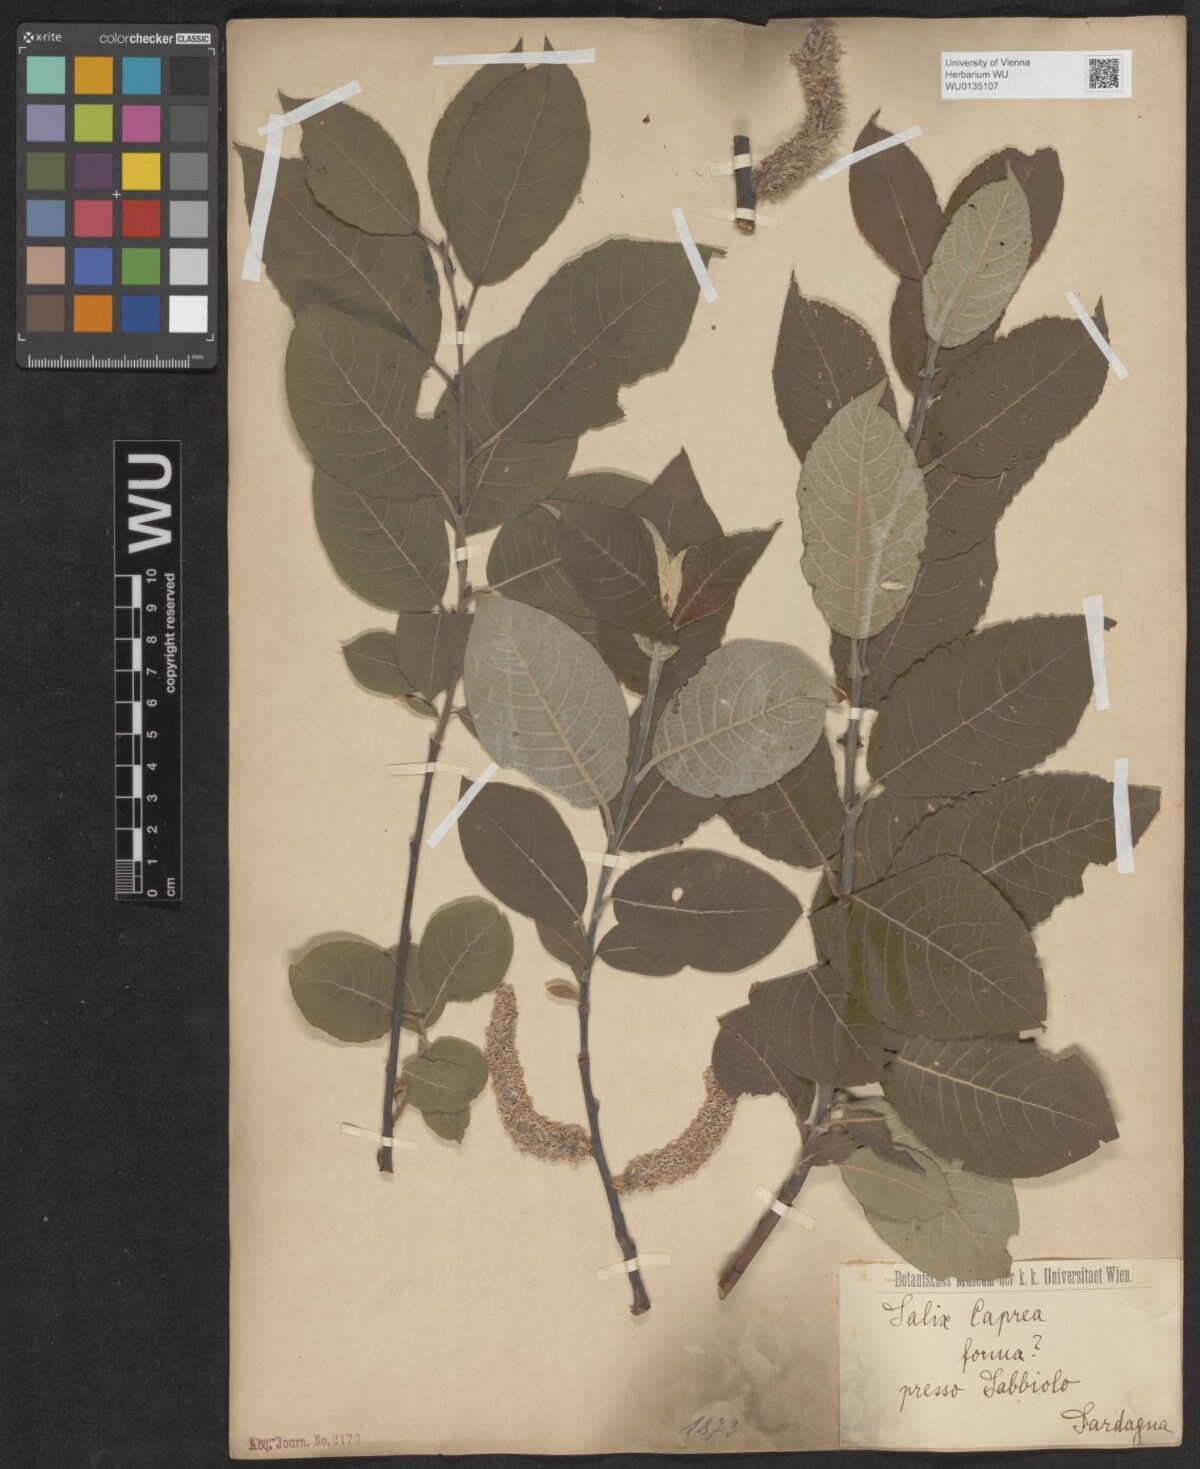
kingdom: Plantae
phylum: Tracheophyta
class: Magnoliopsida
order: Malpighiales
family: Salicaceae
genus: Salix
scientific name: Salix caprea
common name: Goat willow
